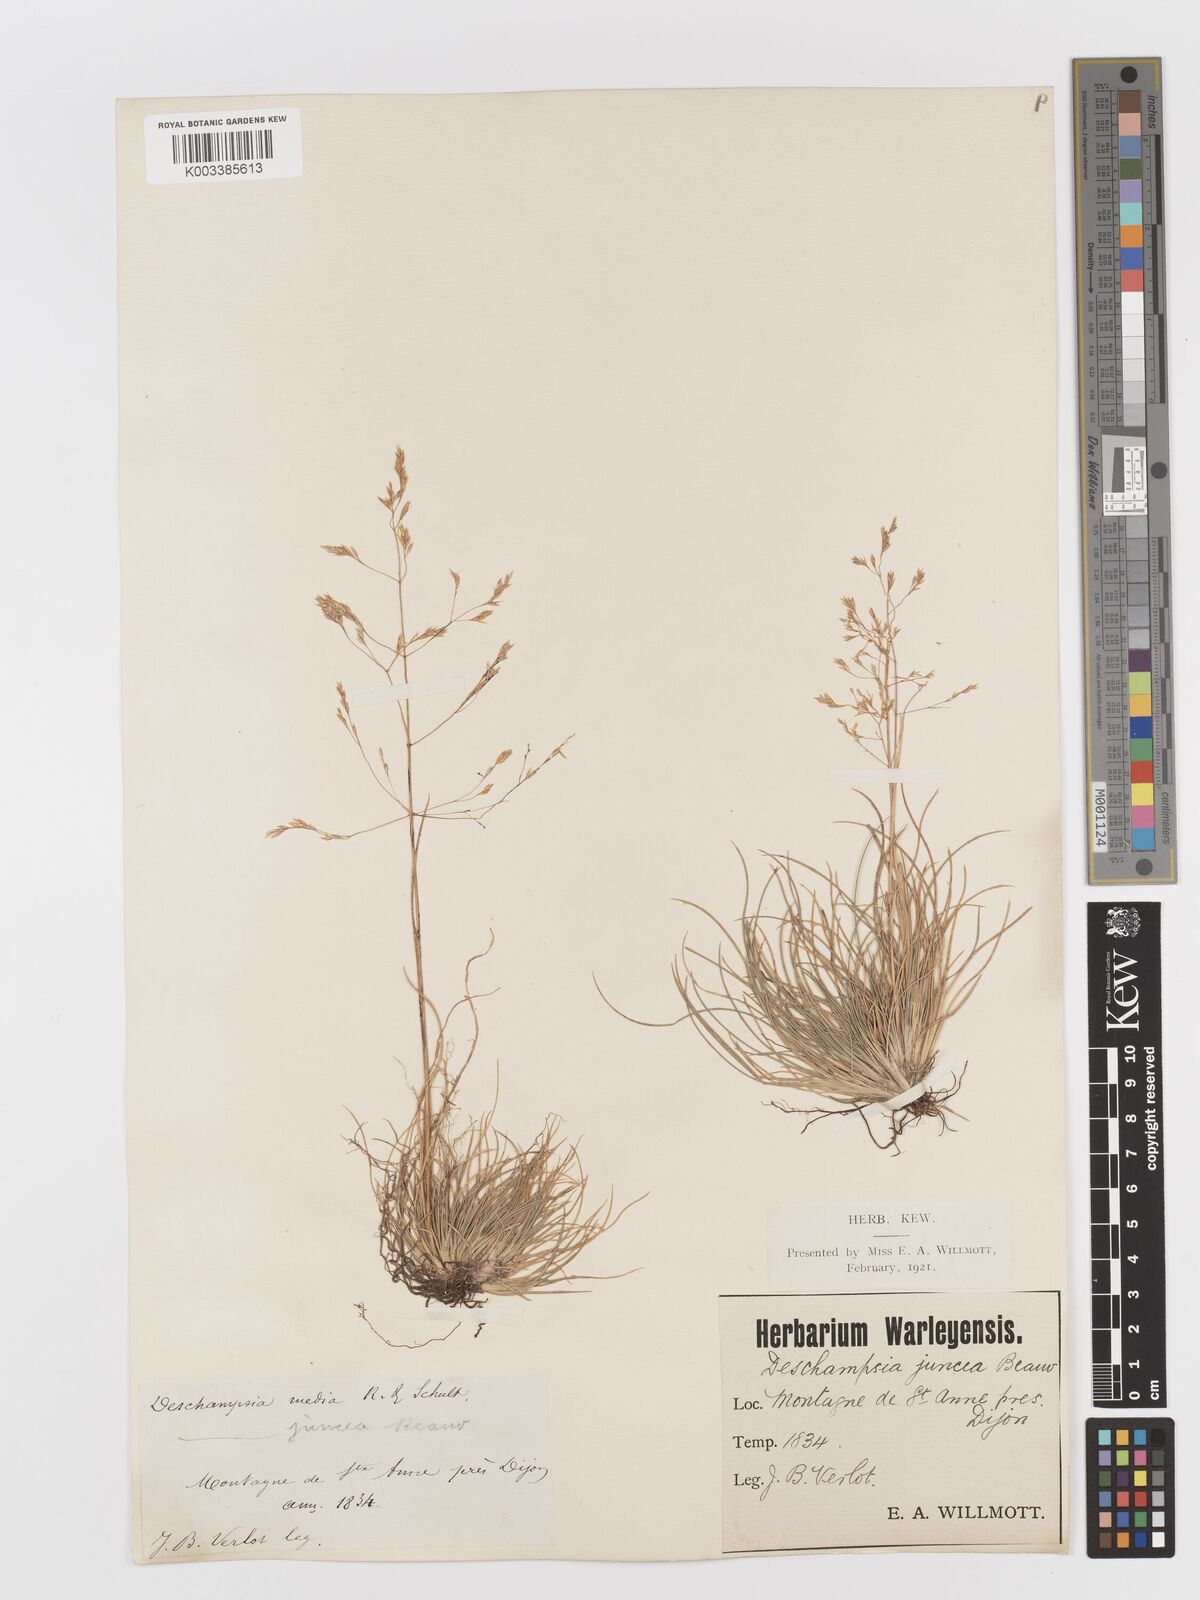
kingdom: Plantae
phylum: Tracheophyta
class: Liliopsida
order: Poales
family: Poaceae
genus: Deschampsia
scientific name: Deschampsia media
